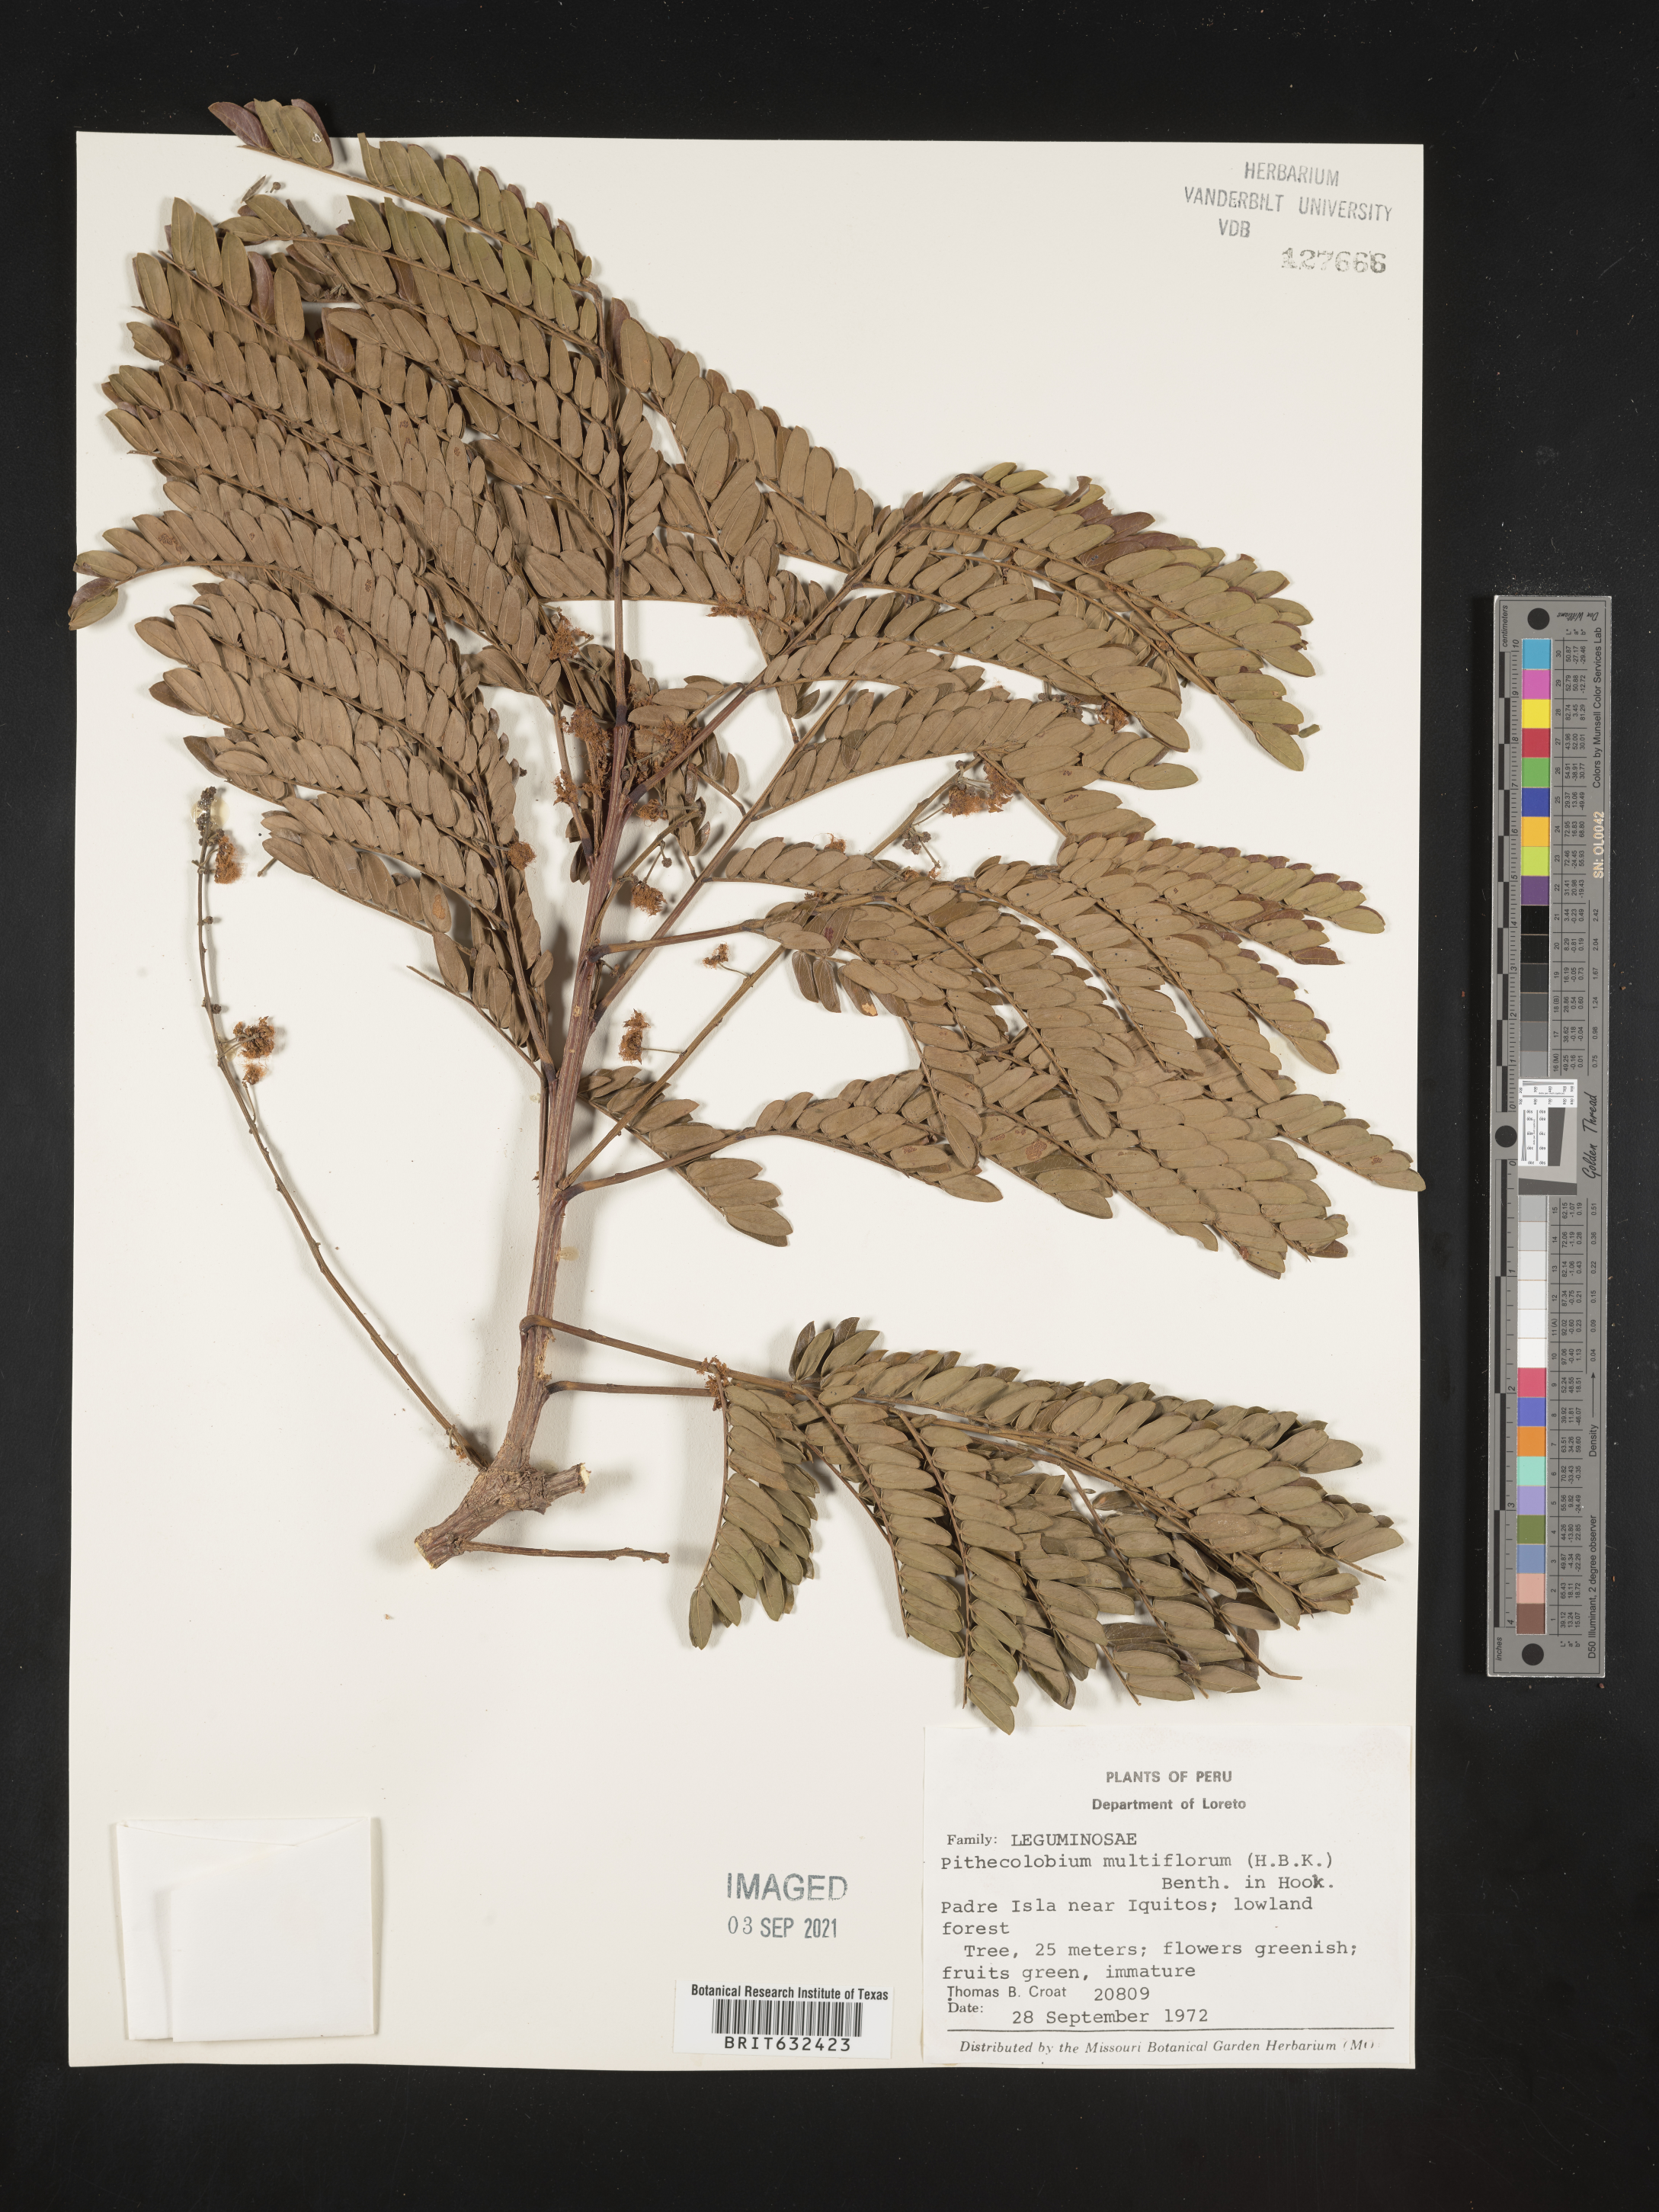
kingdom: Plantae
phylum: Tracheophyta
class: Magnoliopsida
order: Fabales
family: Fabaceae
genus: Pithecellobium
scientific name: Pithecellobium
